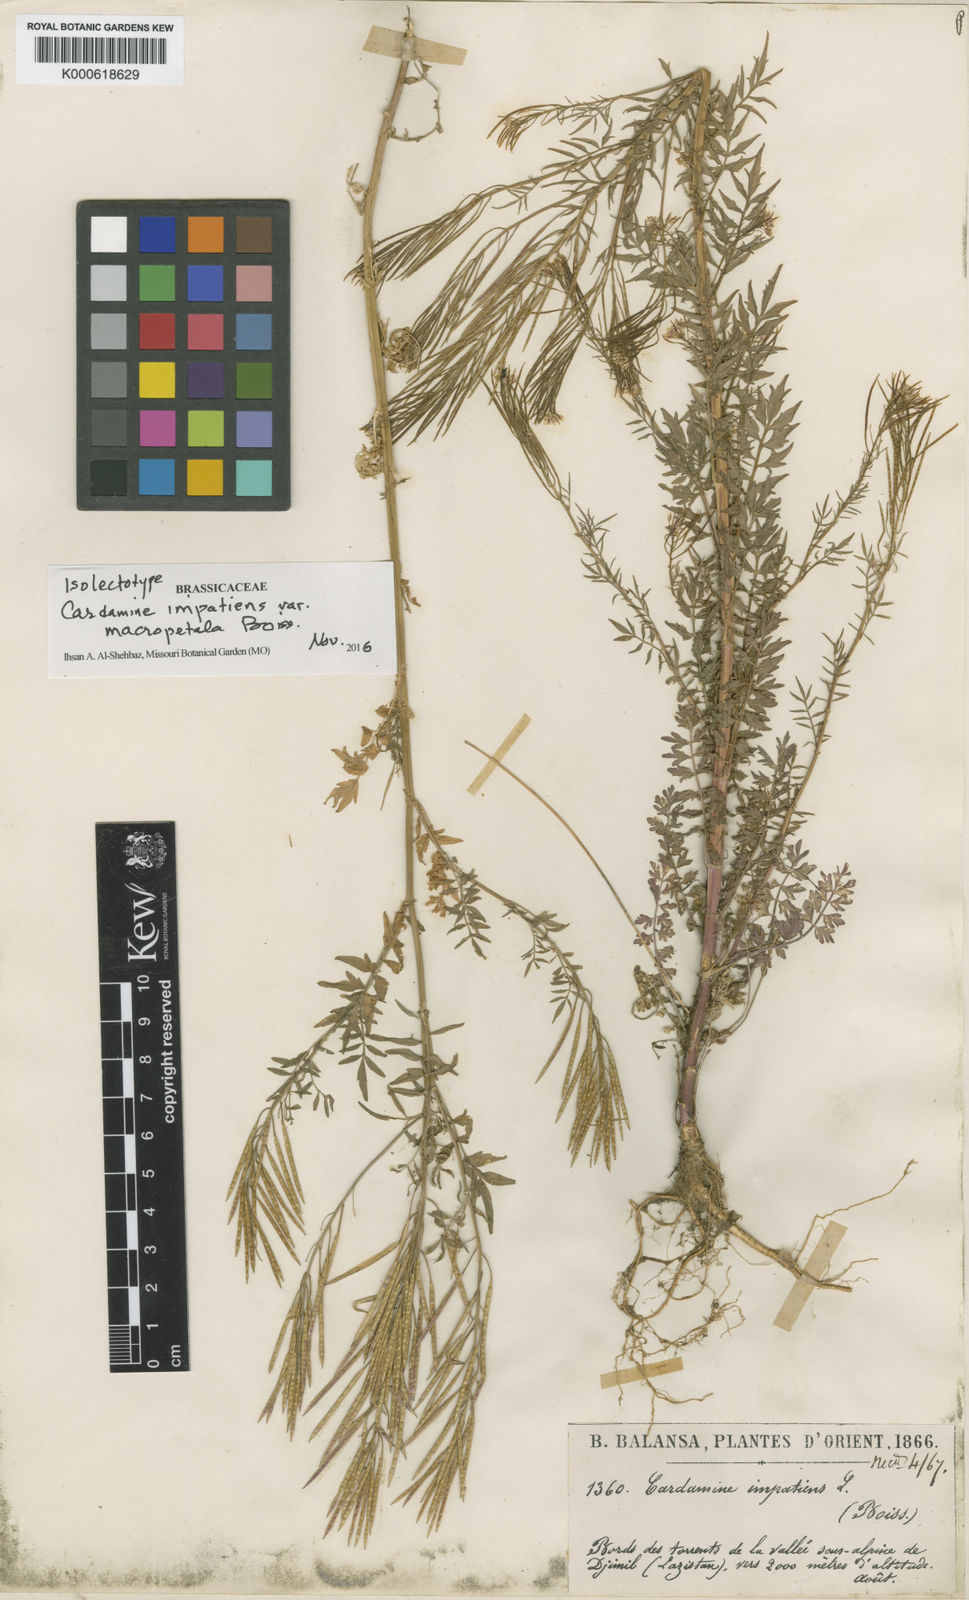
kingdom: Plantae
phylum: Tracheophyta
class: Magnoliopsida
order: Brassicales
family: Brassicaceae
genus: Cardamine
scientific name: Cardamine
